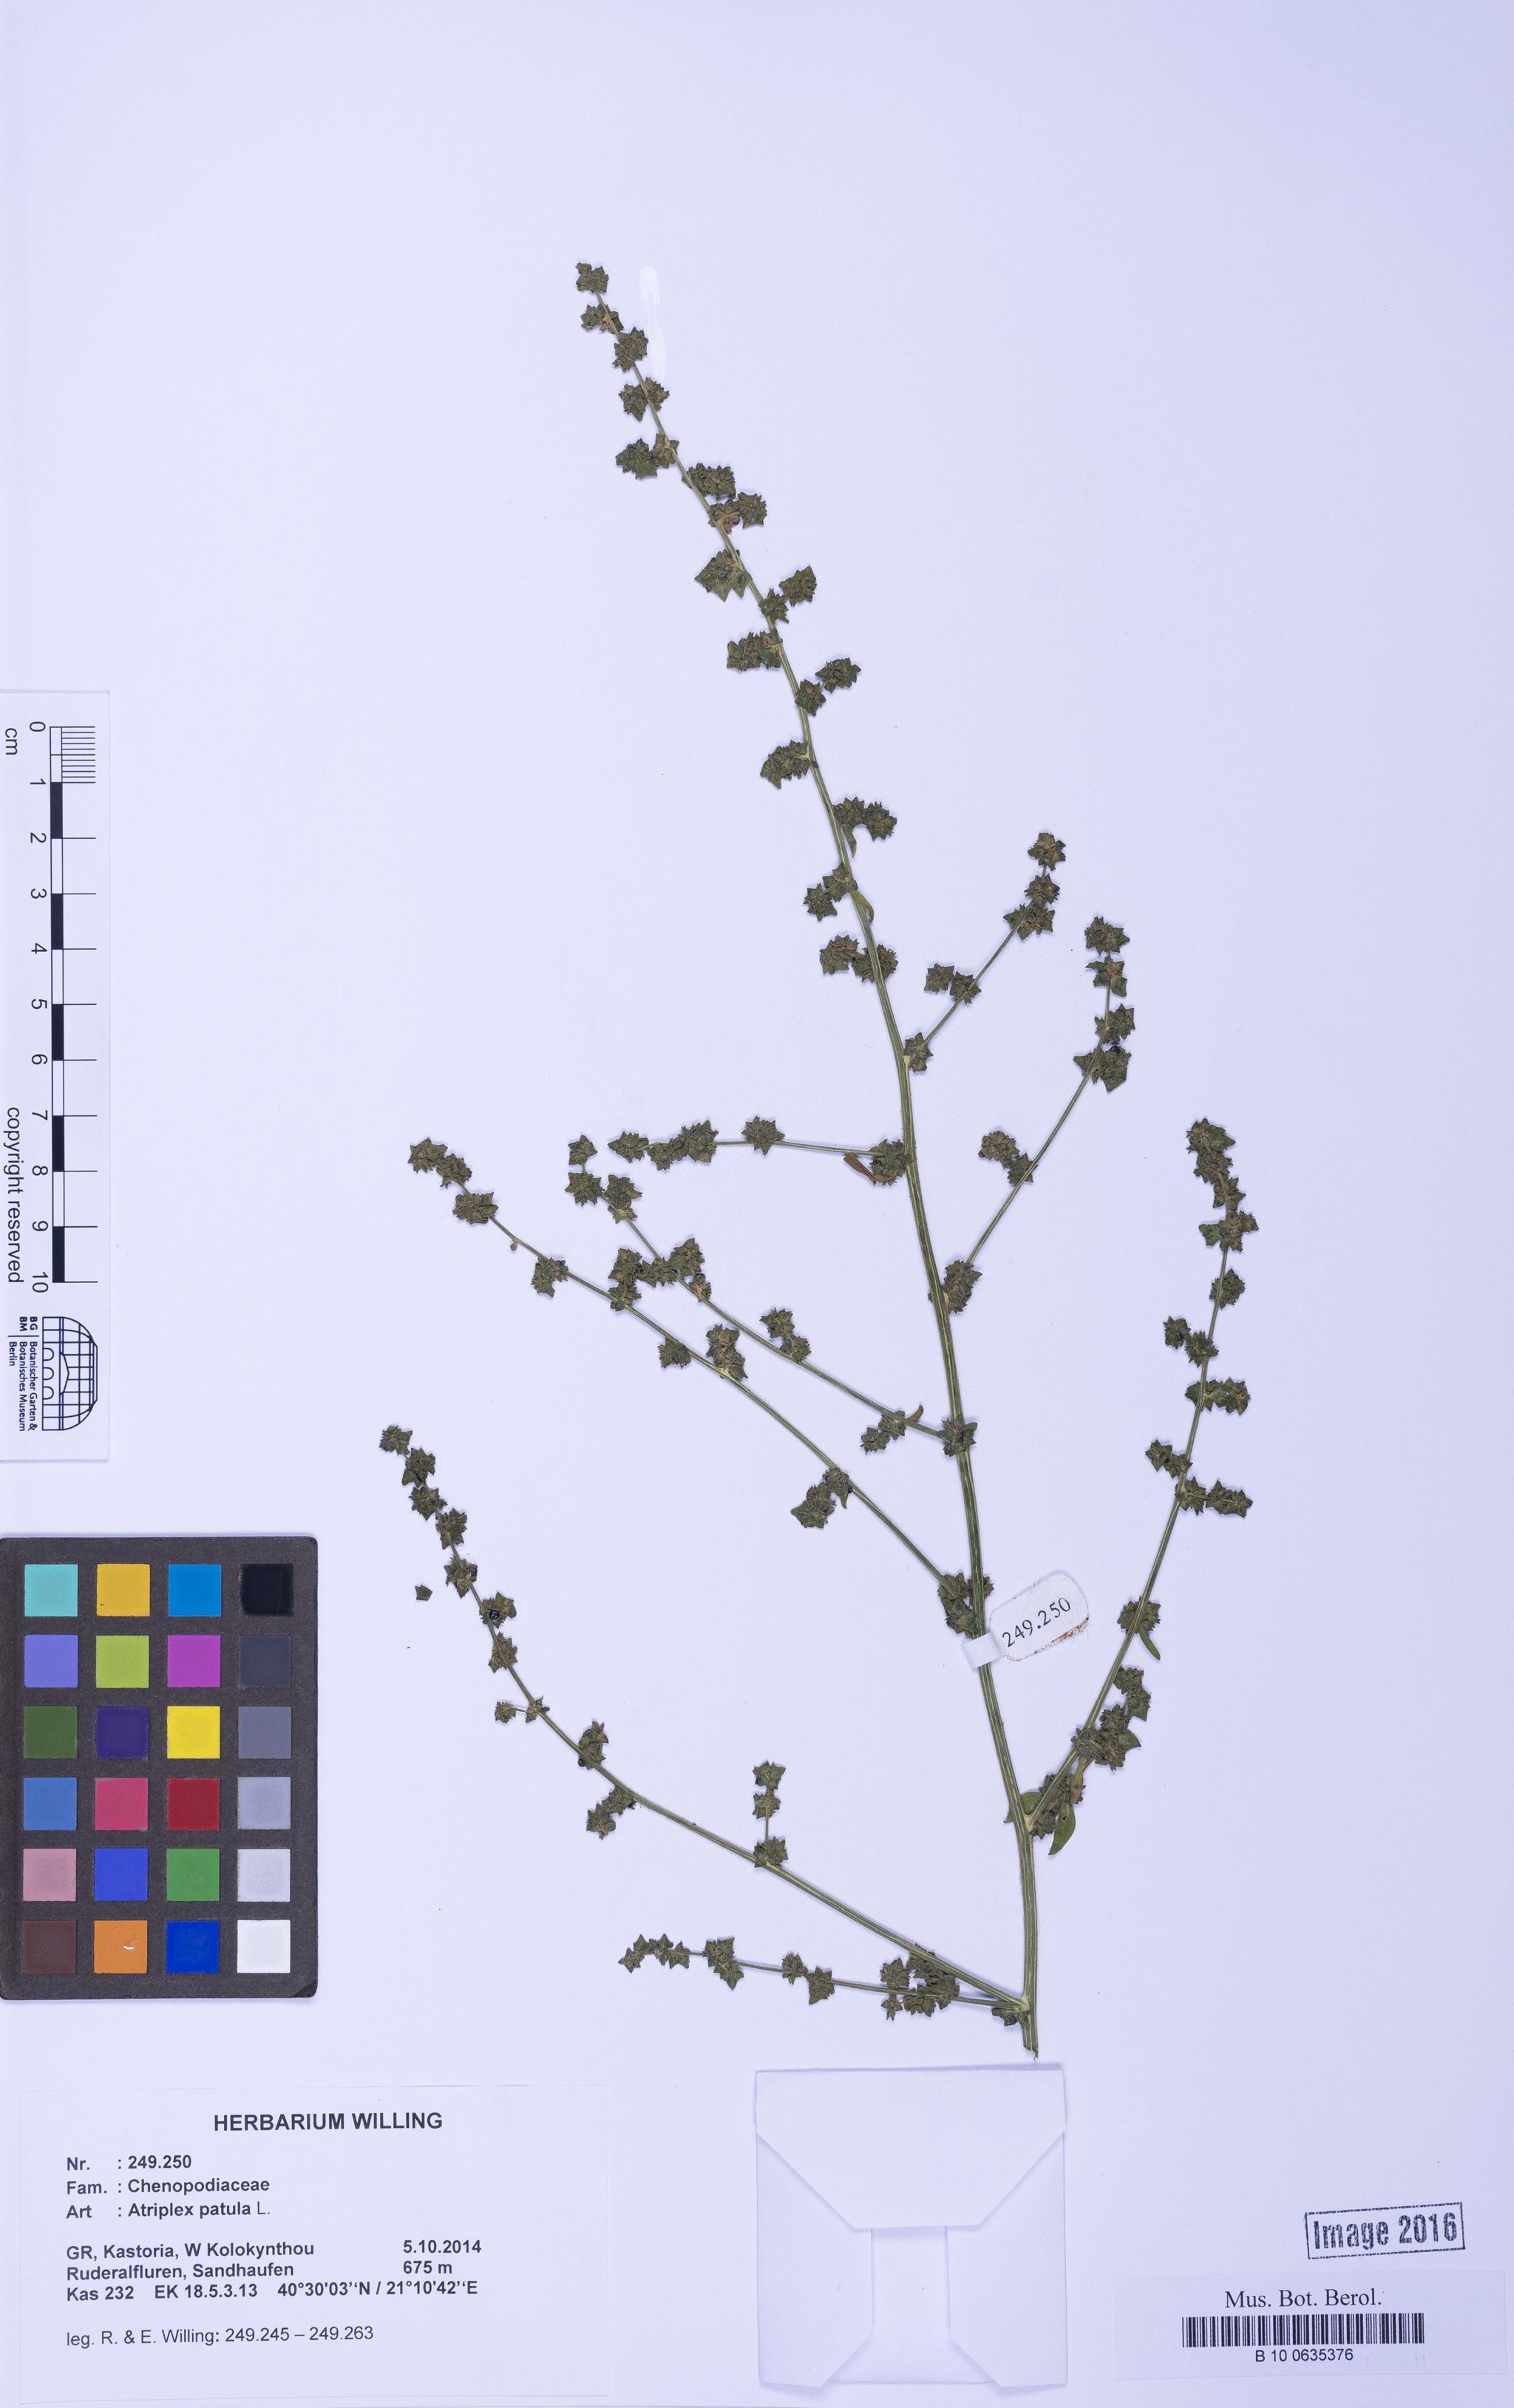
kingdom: Plantae
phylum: Tracheophyta
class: Magnoliopsida
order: Caryophyllales
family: Amaranthaceae
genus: Atriplex
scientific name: Atriplex patula
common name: Common orache
